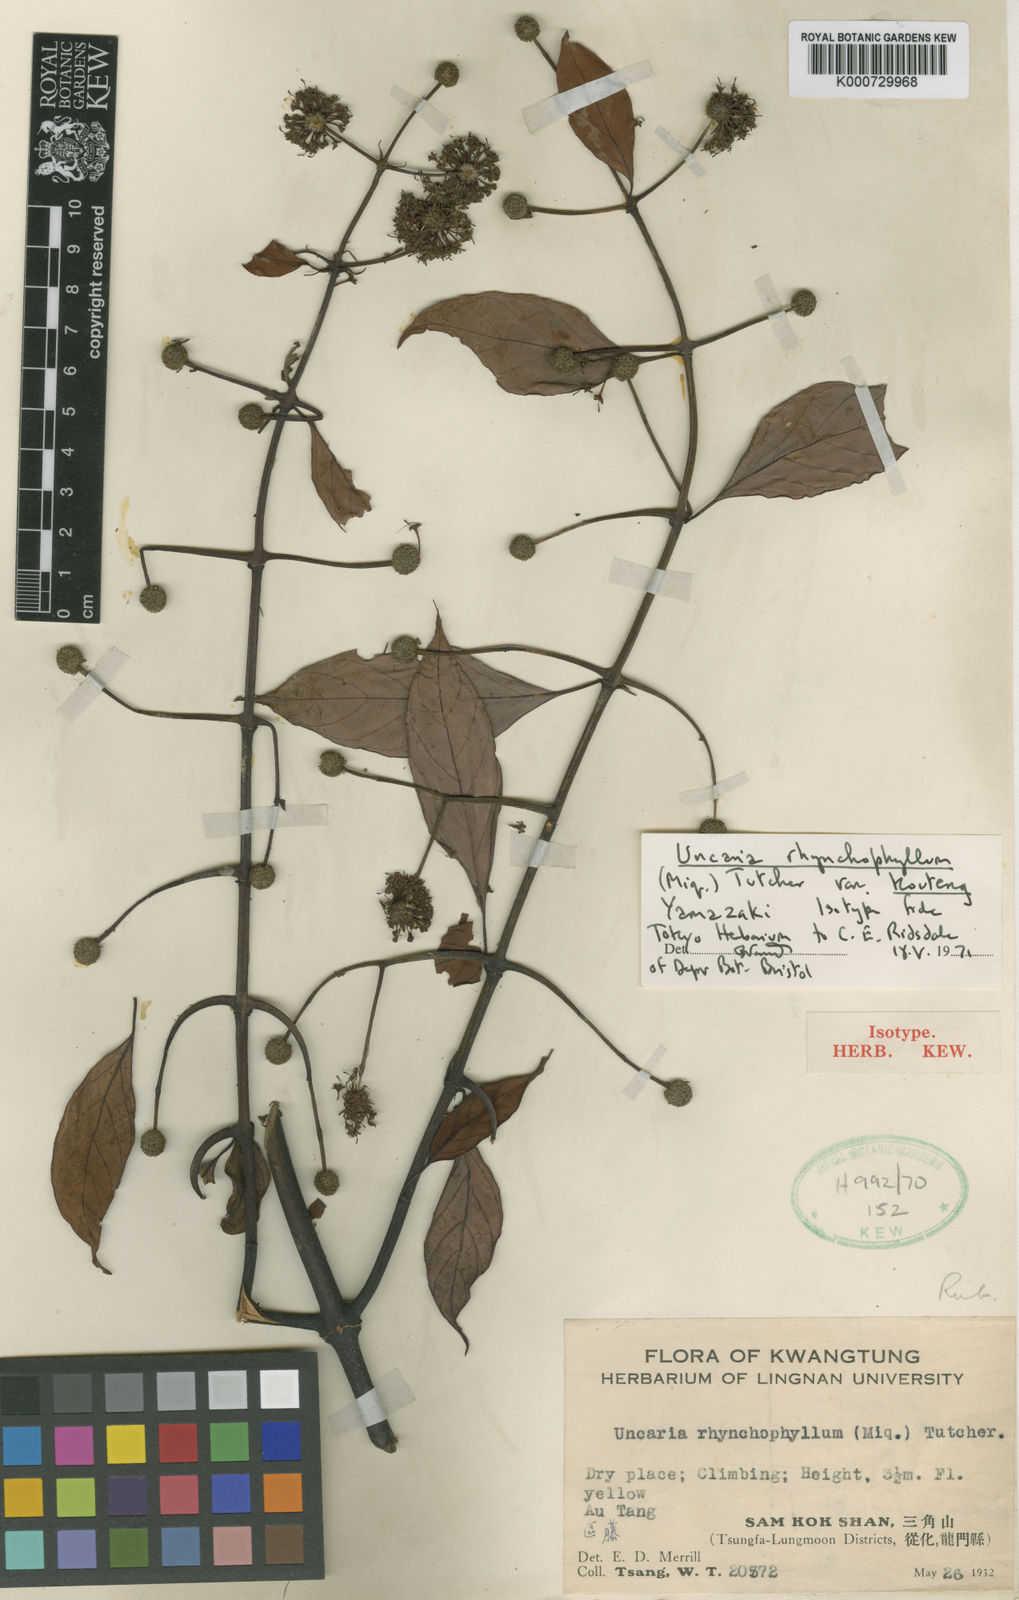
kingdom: Plantae
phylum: Tracheophyta
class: Magnoliopsida
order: Gentianales
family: Rubiaceae
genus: Uncaria
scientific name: Uncaria
